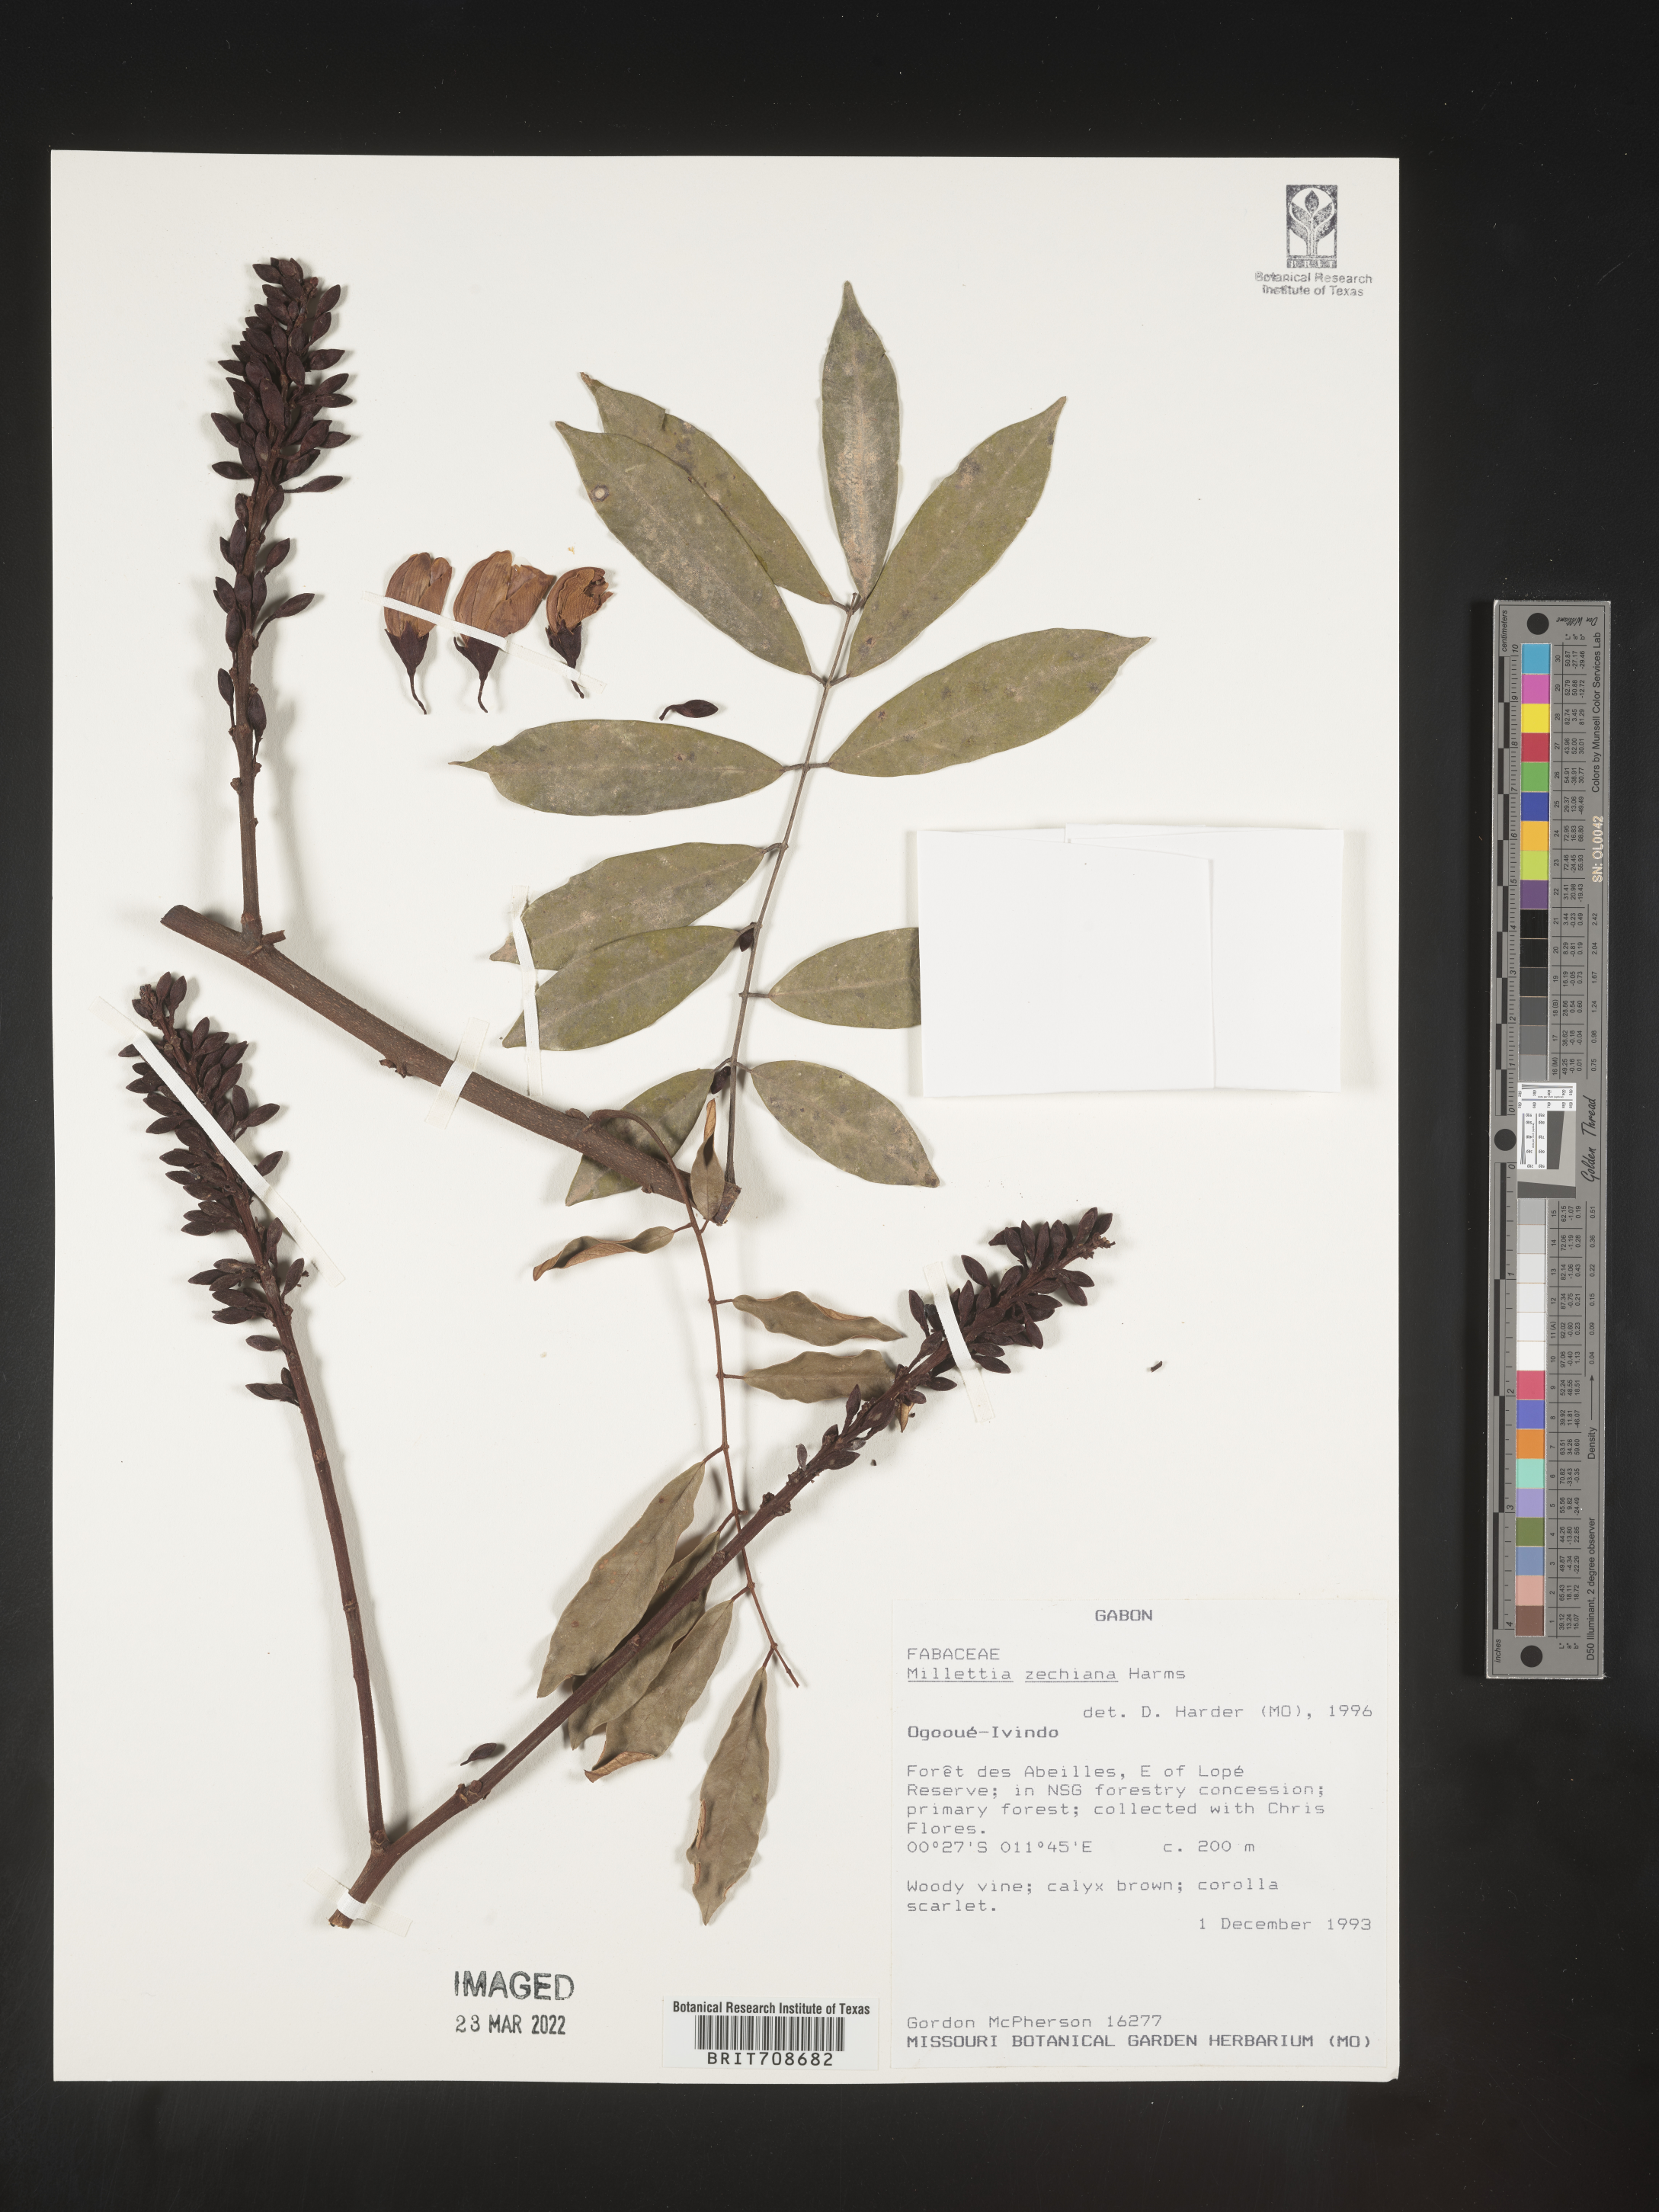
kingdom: Plantae
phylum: Tracheophyta
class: Magnoliopsida
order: Fabales
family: Fabaceae
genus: Millettia
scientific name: Millettia
